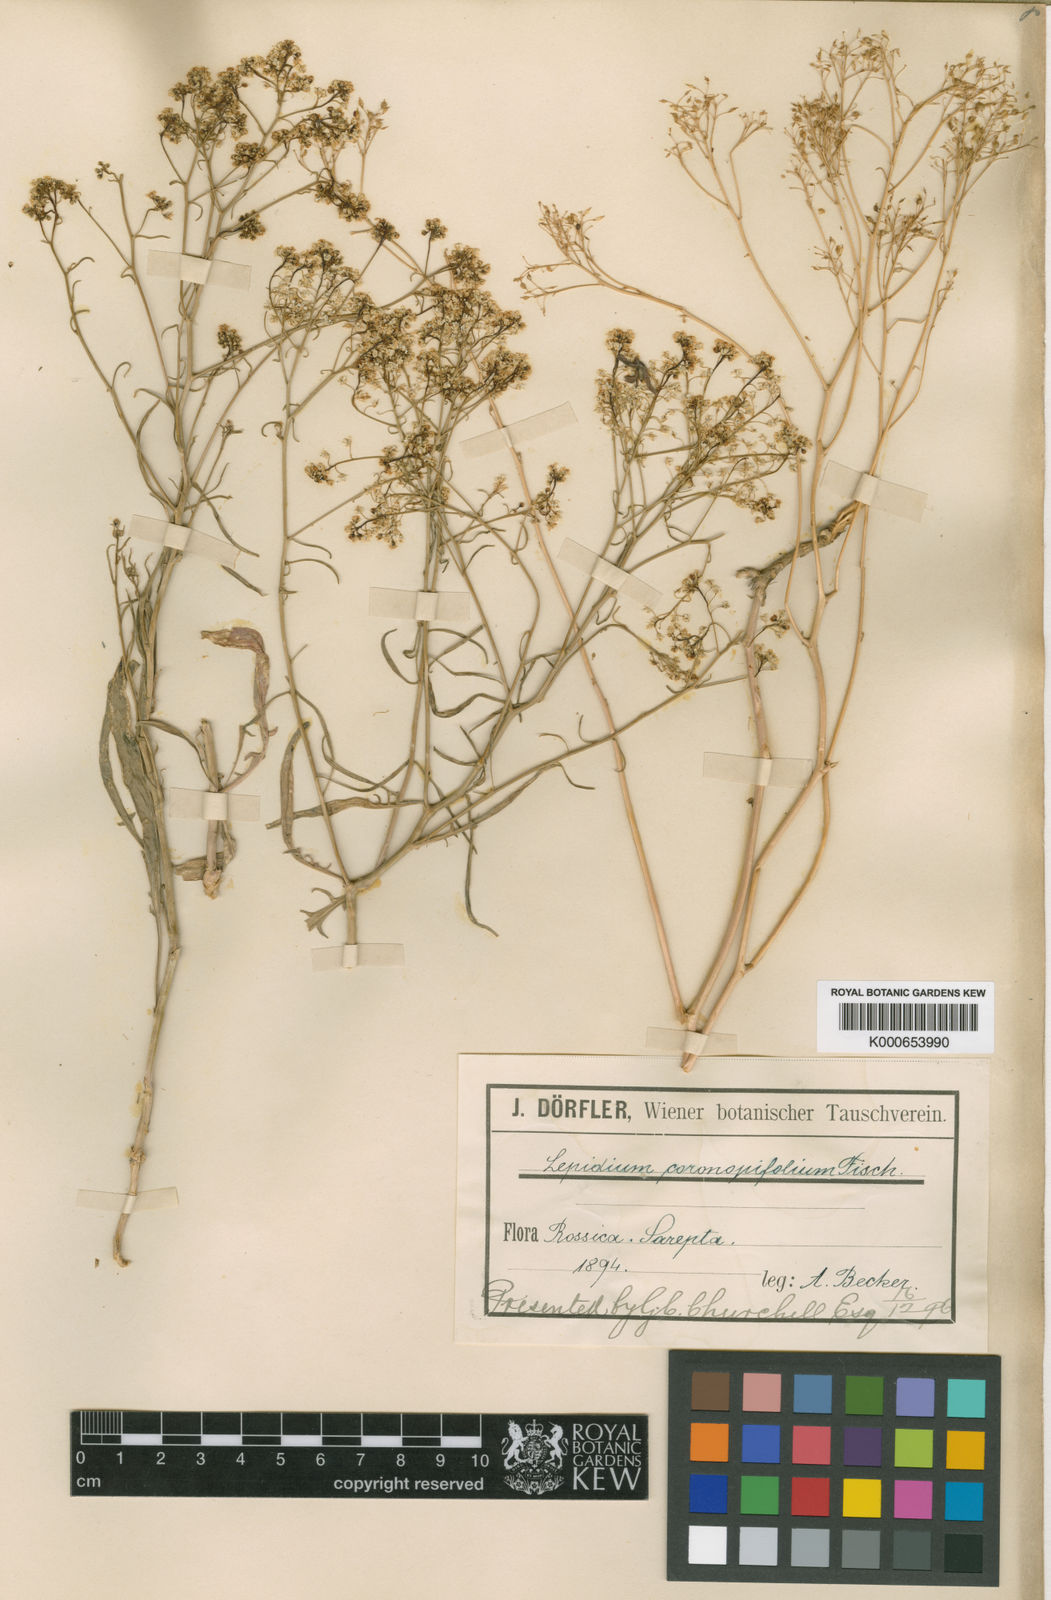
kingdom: Plantae
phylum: Tracheophyta
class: Magnoliopsida
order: Brassicales
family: Brassicaceae
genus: Lepidium
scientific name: Lepidium flexicaule
